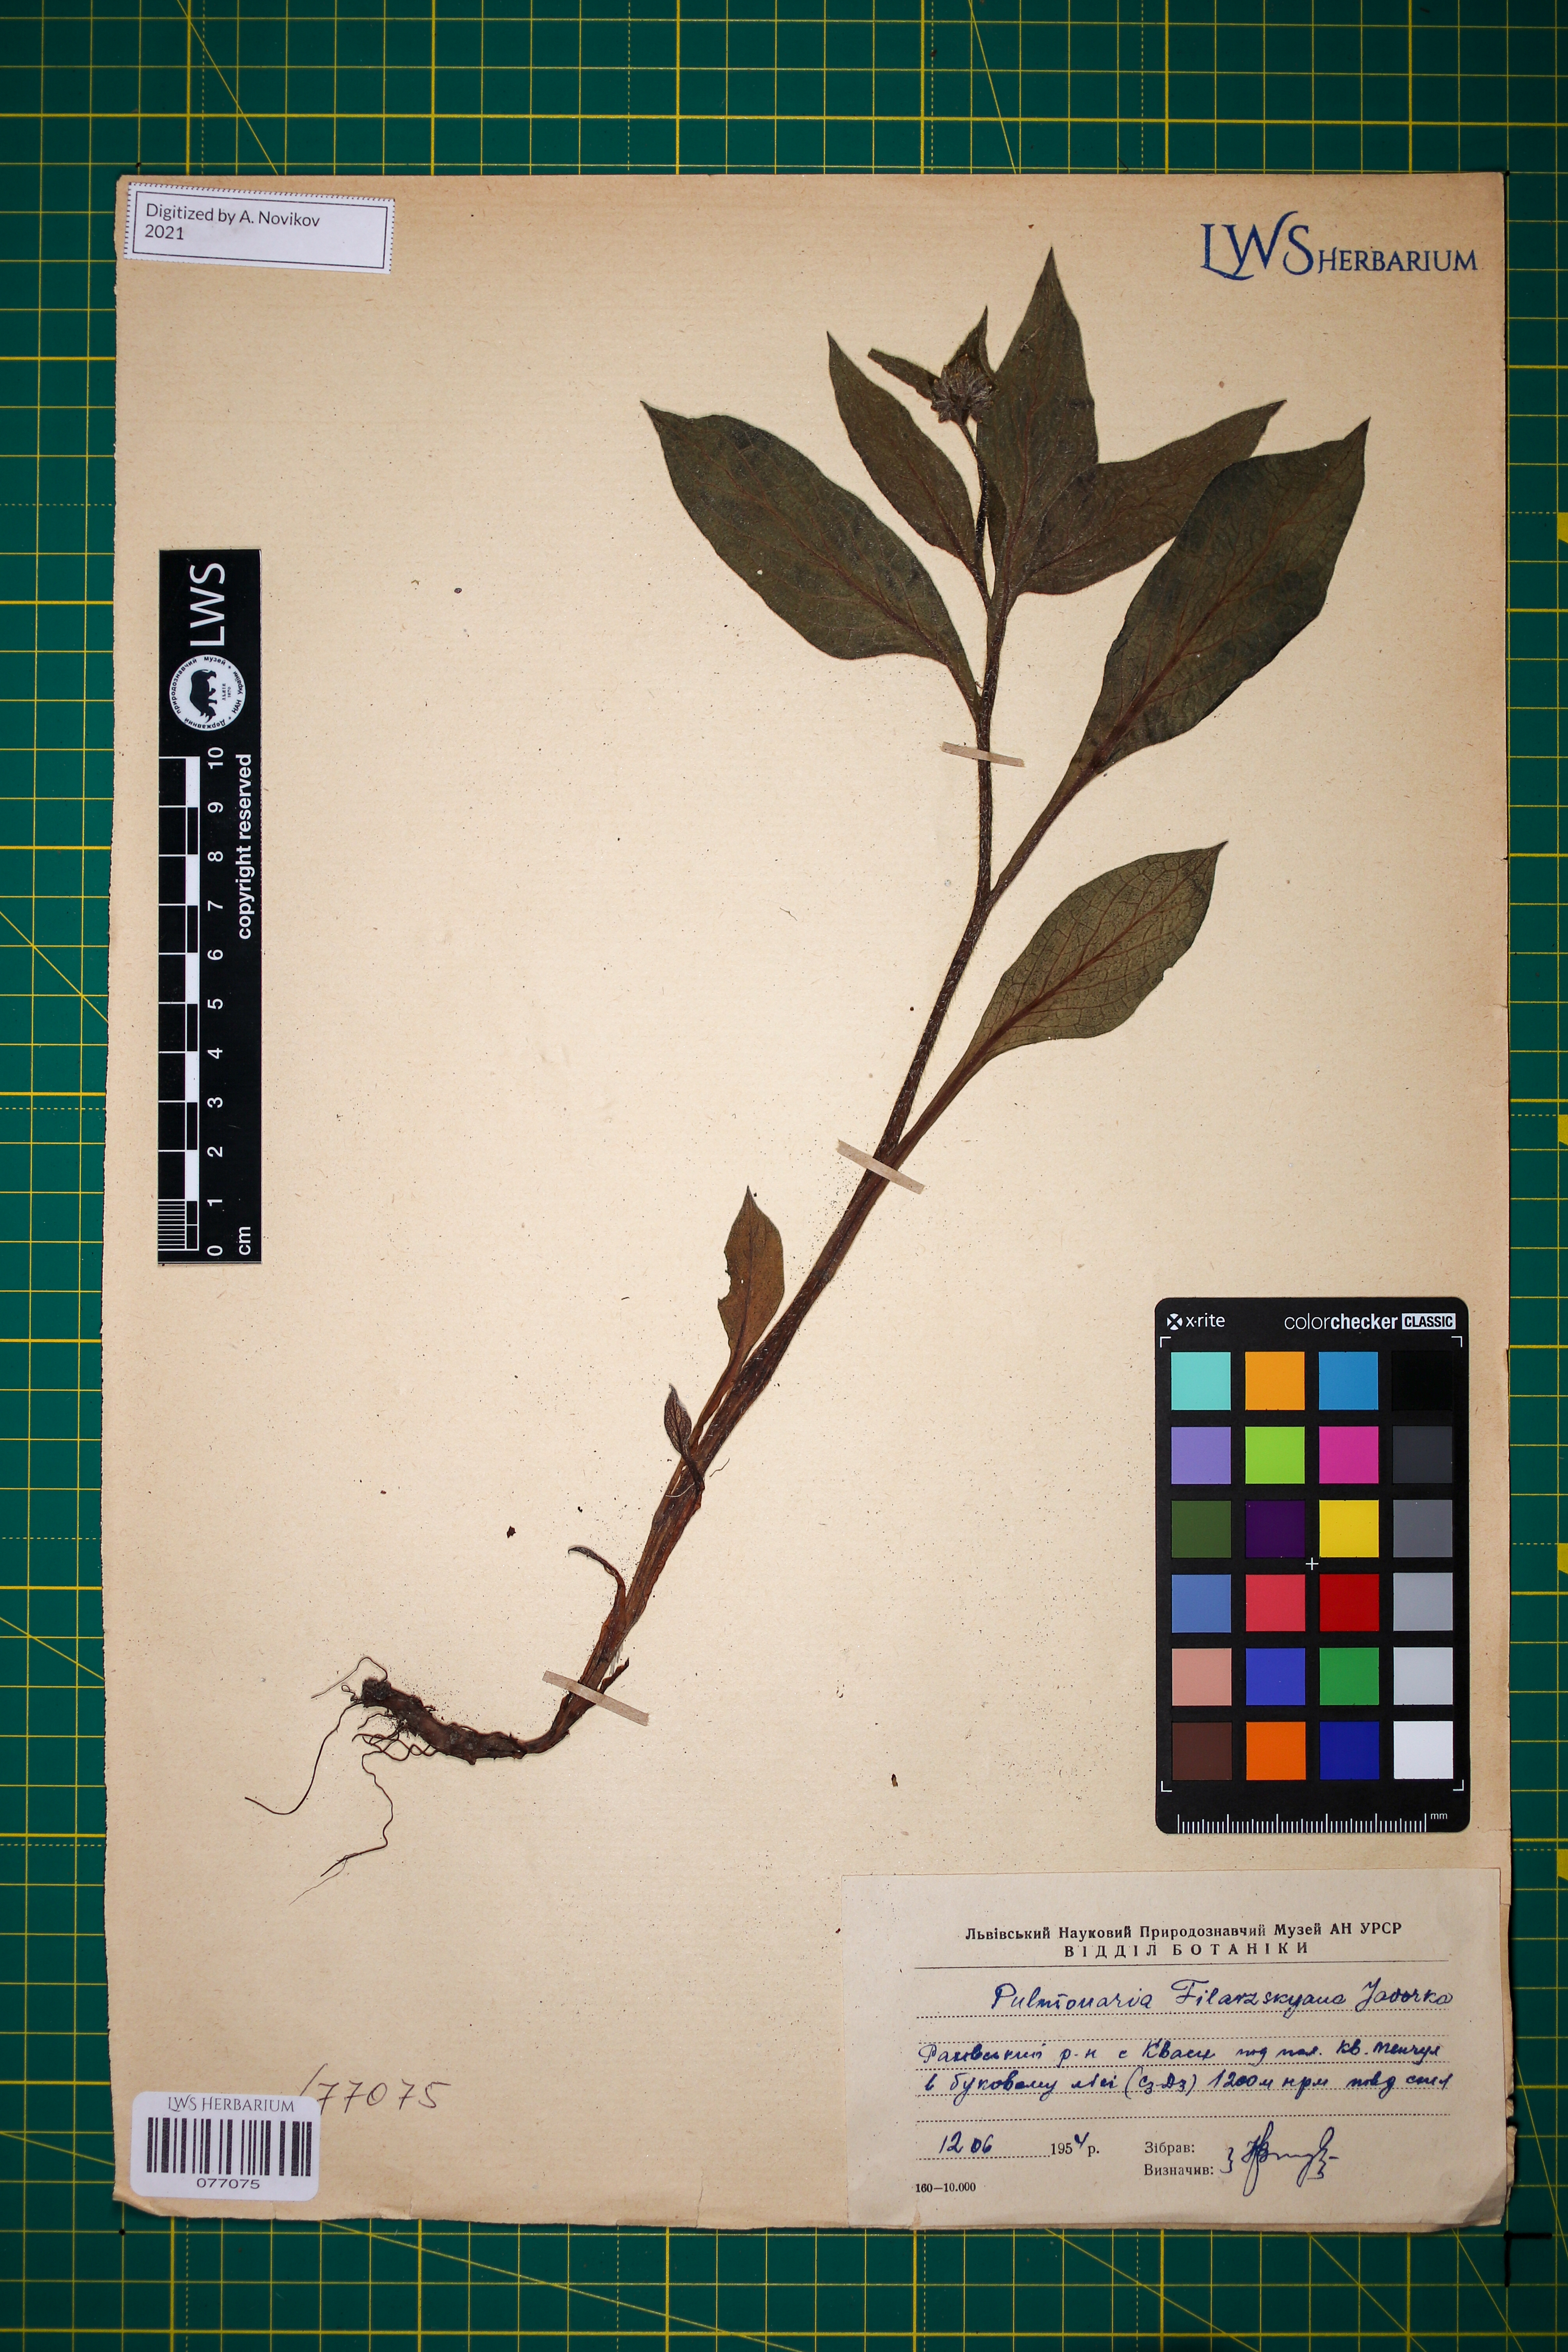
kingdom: Plantae
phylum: Tracheophyta
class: Magnoliopsida
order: Boraginales
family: Boraginaceae
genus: Pulmonaria
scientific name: Pulmonaria filarszkyana
